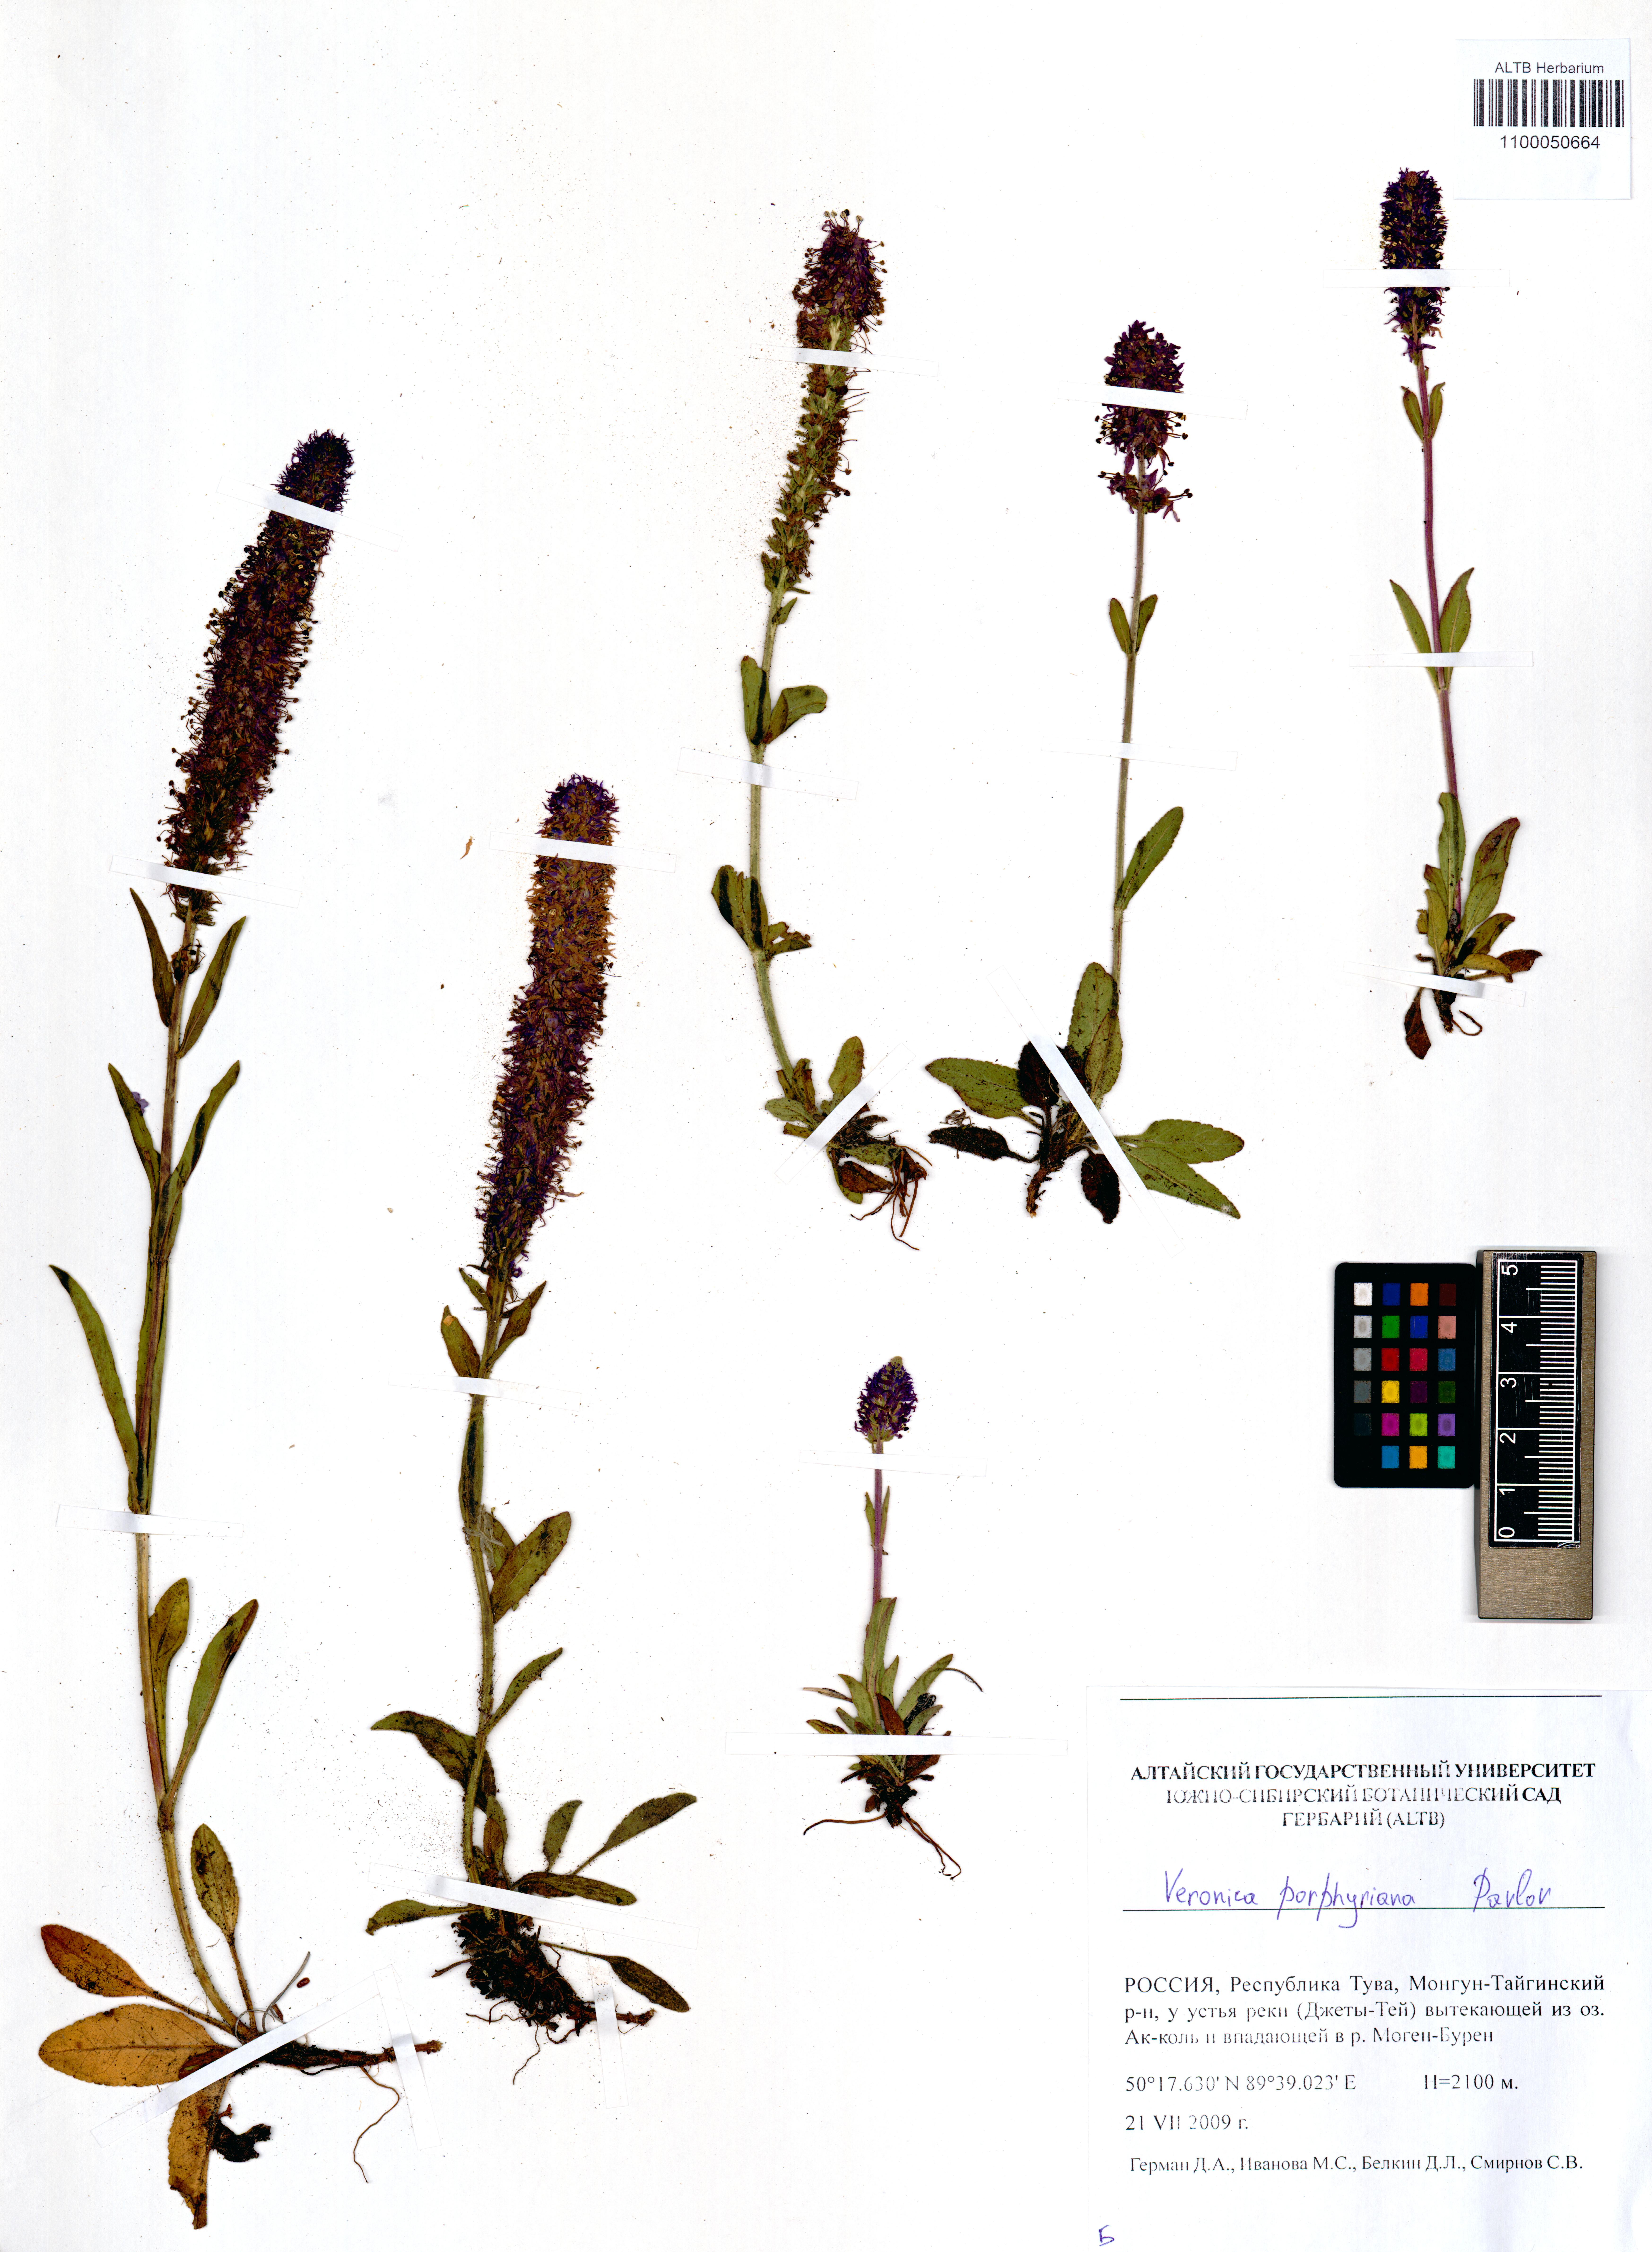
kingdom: Plantae
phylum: Tracheophyta
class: Magnoliopsida
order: Lamiales
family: Plantaginaceae
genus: Veronica
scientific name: Veronica porphyriana
